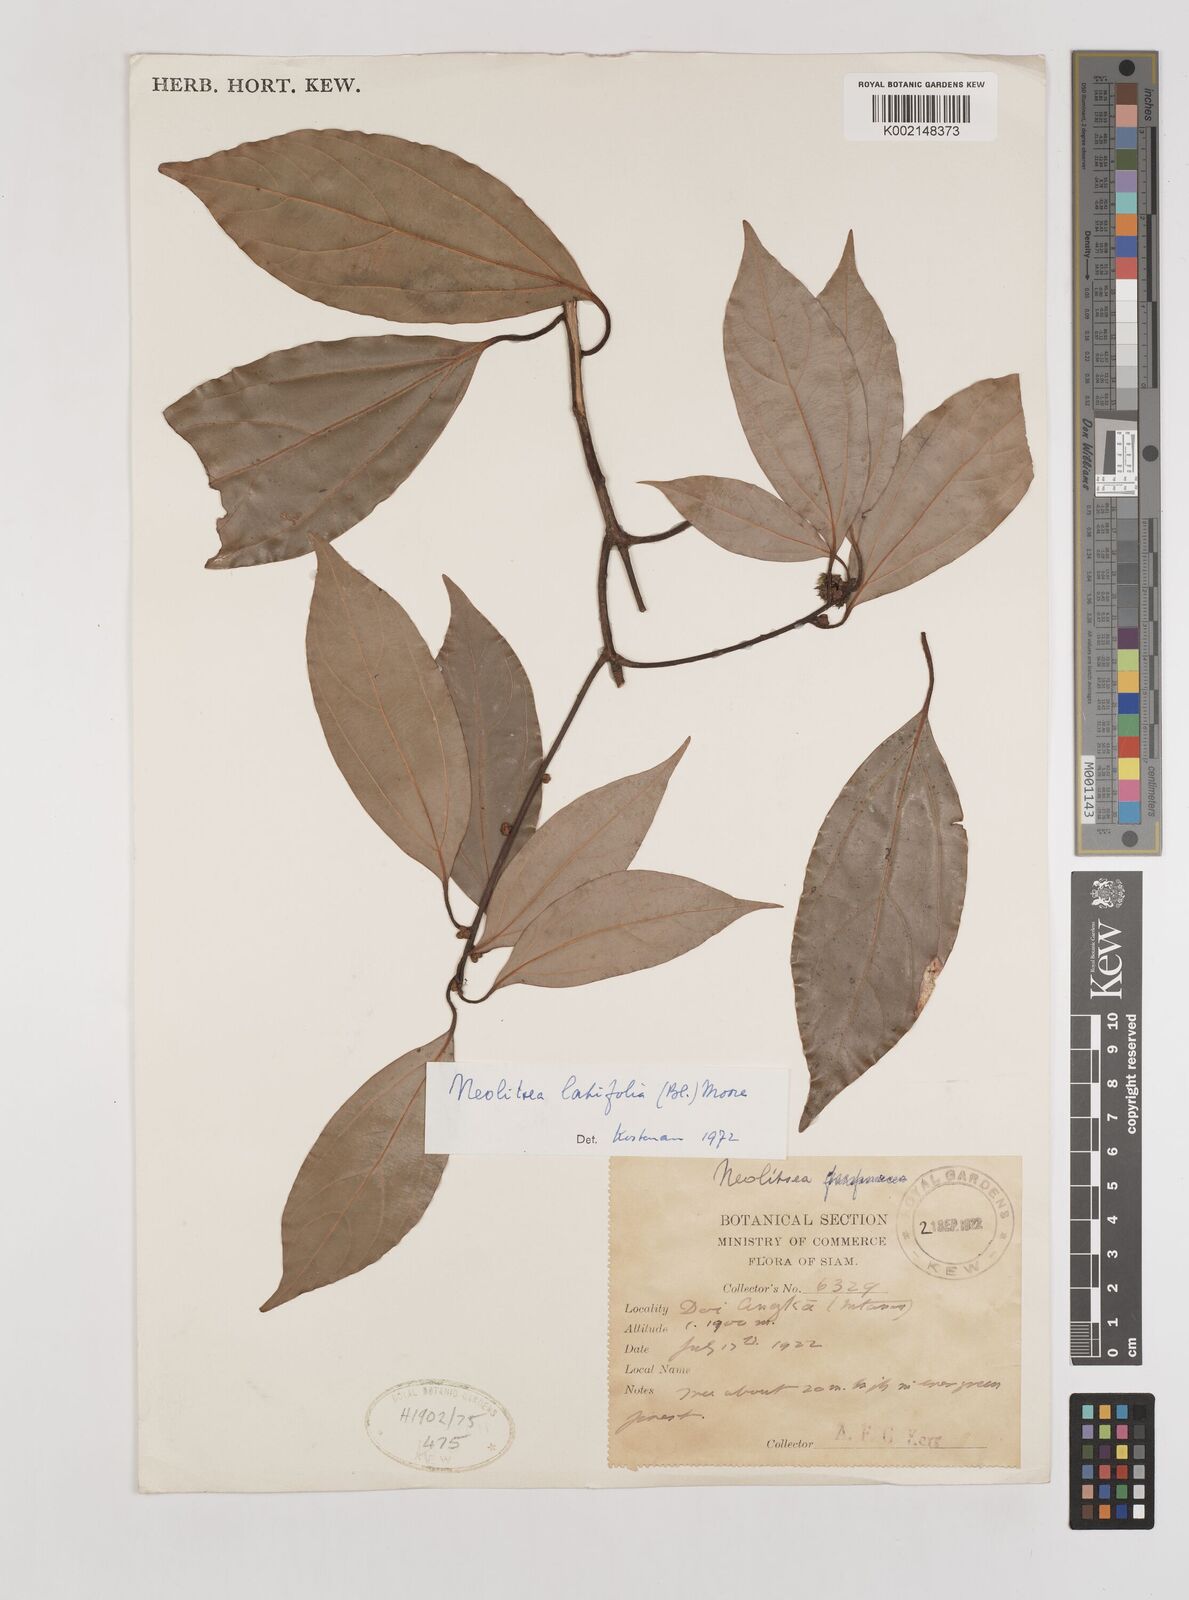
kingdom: Plantae
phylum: Tracheophyta
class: Magnoliopsida
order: Laurales
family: Lauraceae
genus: Neolitsea
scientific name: Neolitsea latifolia
